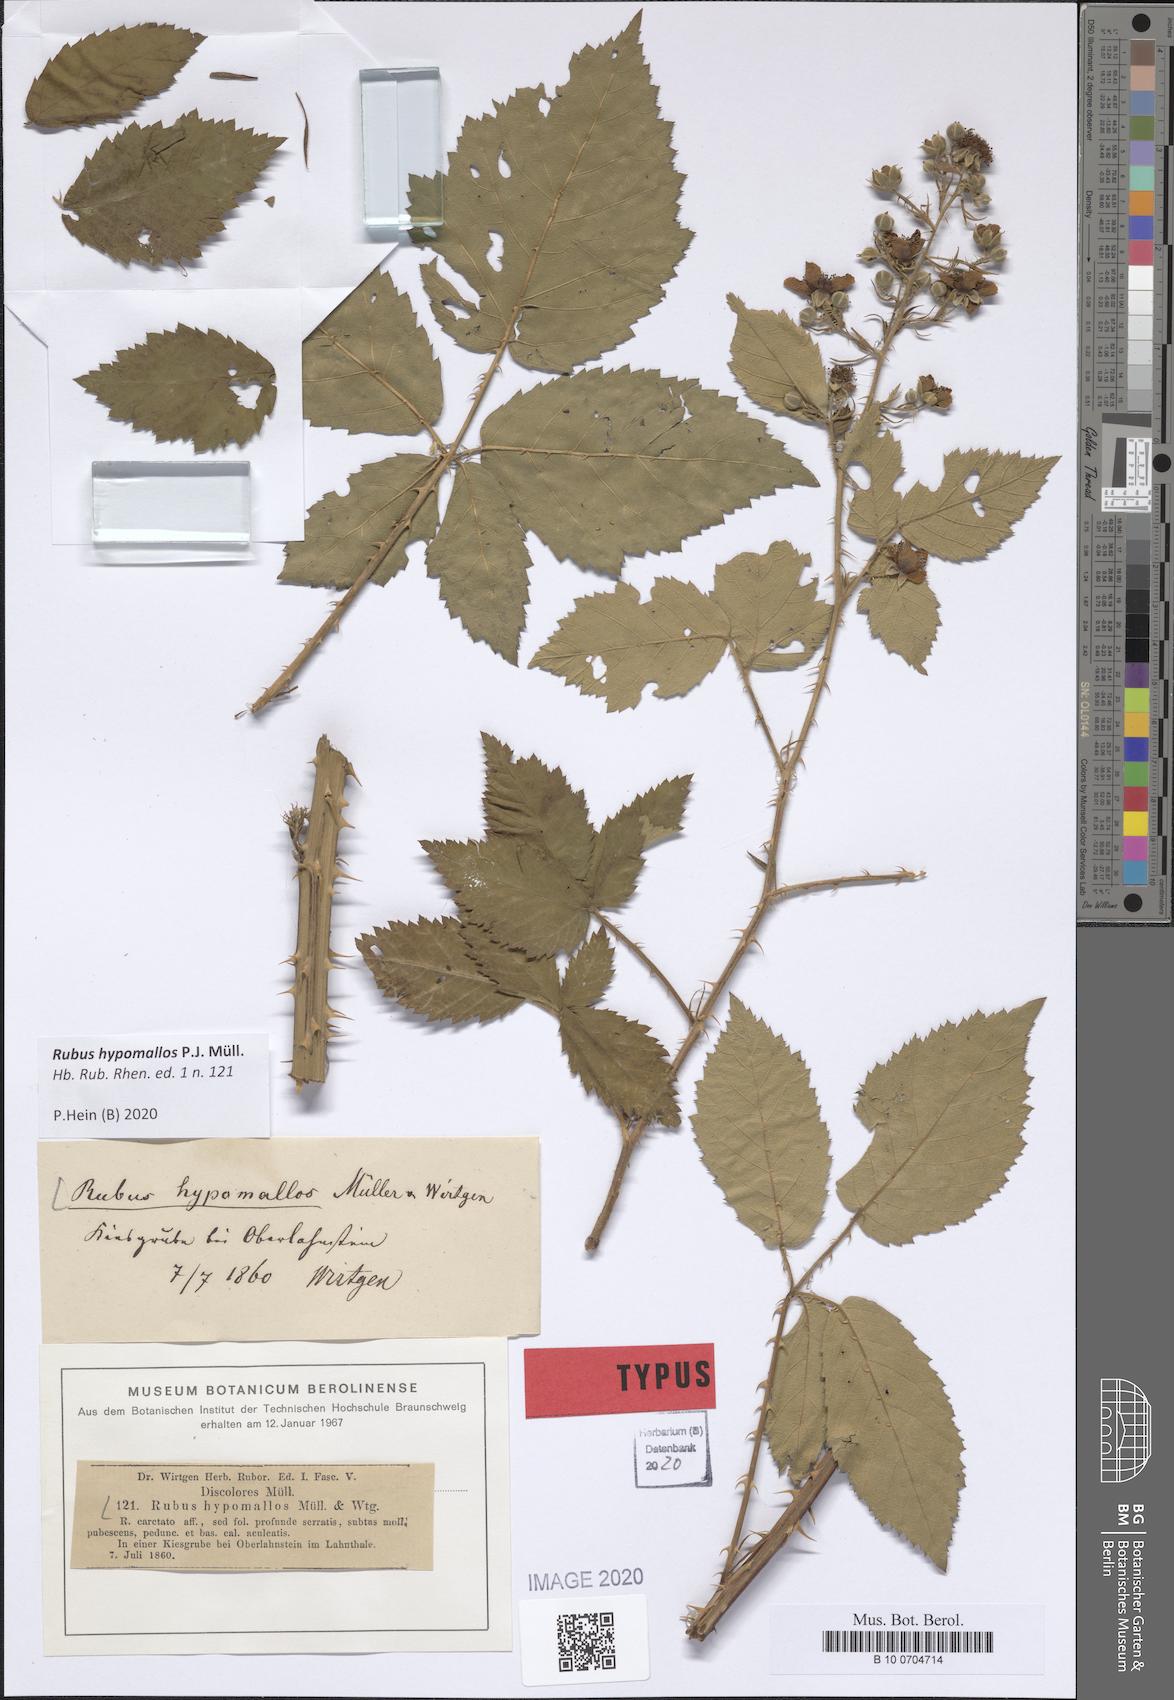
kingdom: Plantae
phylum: Tracheophyta
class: Magnoliopsida
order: Rosales
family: Rosaceae
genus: Rubus
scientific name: Rubus hypomallos
